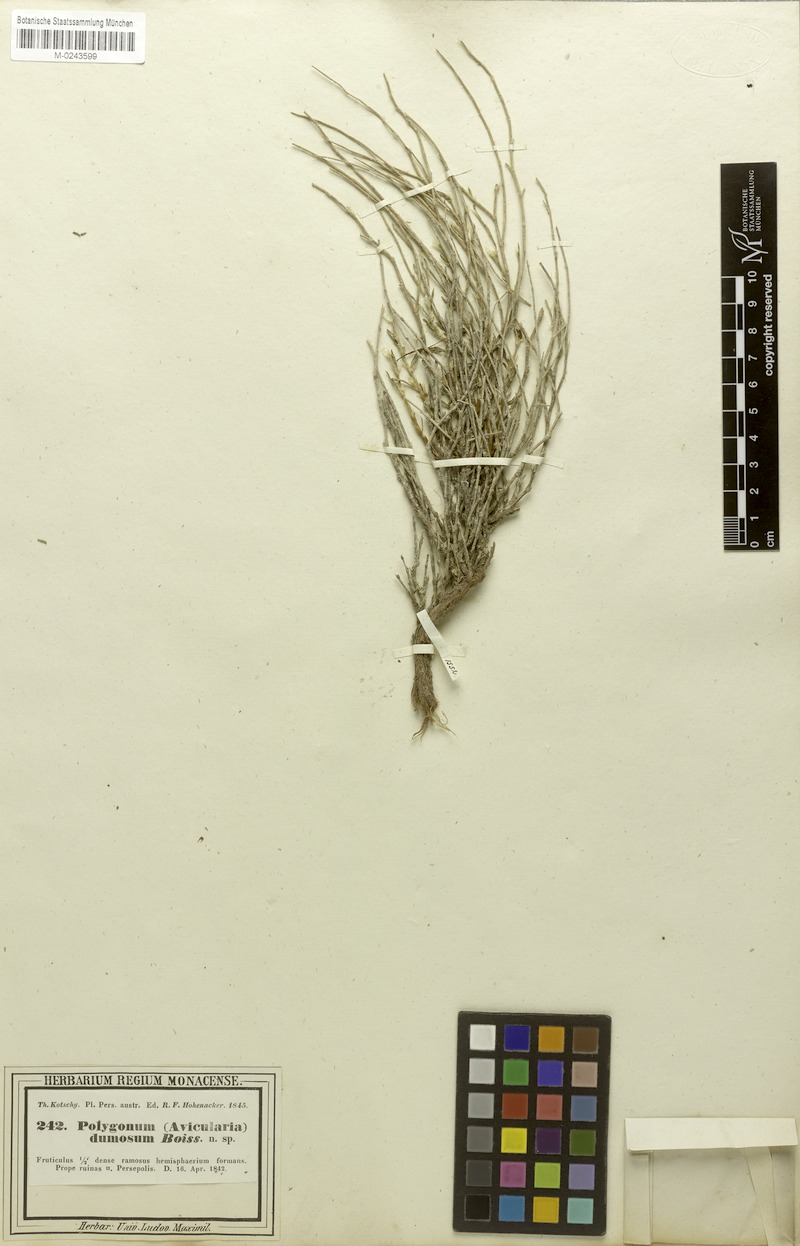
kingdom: Plantae
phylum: Tracheophyta
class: Magnoliopsida
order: Caryophyllales
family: Polygonaceae
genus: Atraphaxis
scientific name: Atraphaxis dumosa
